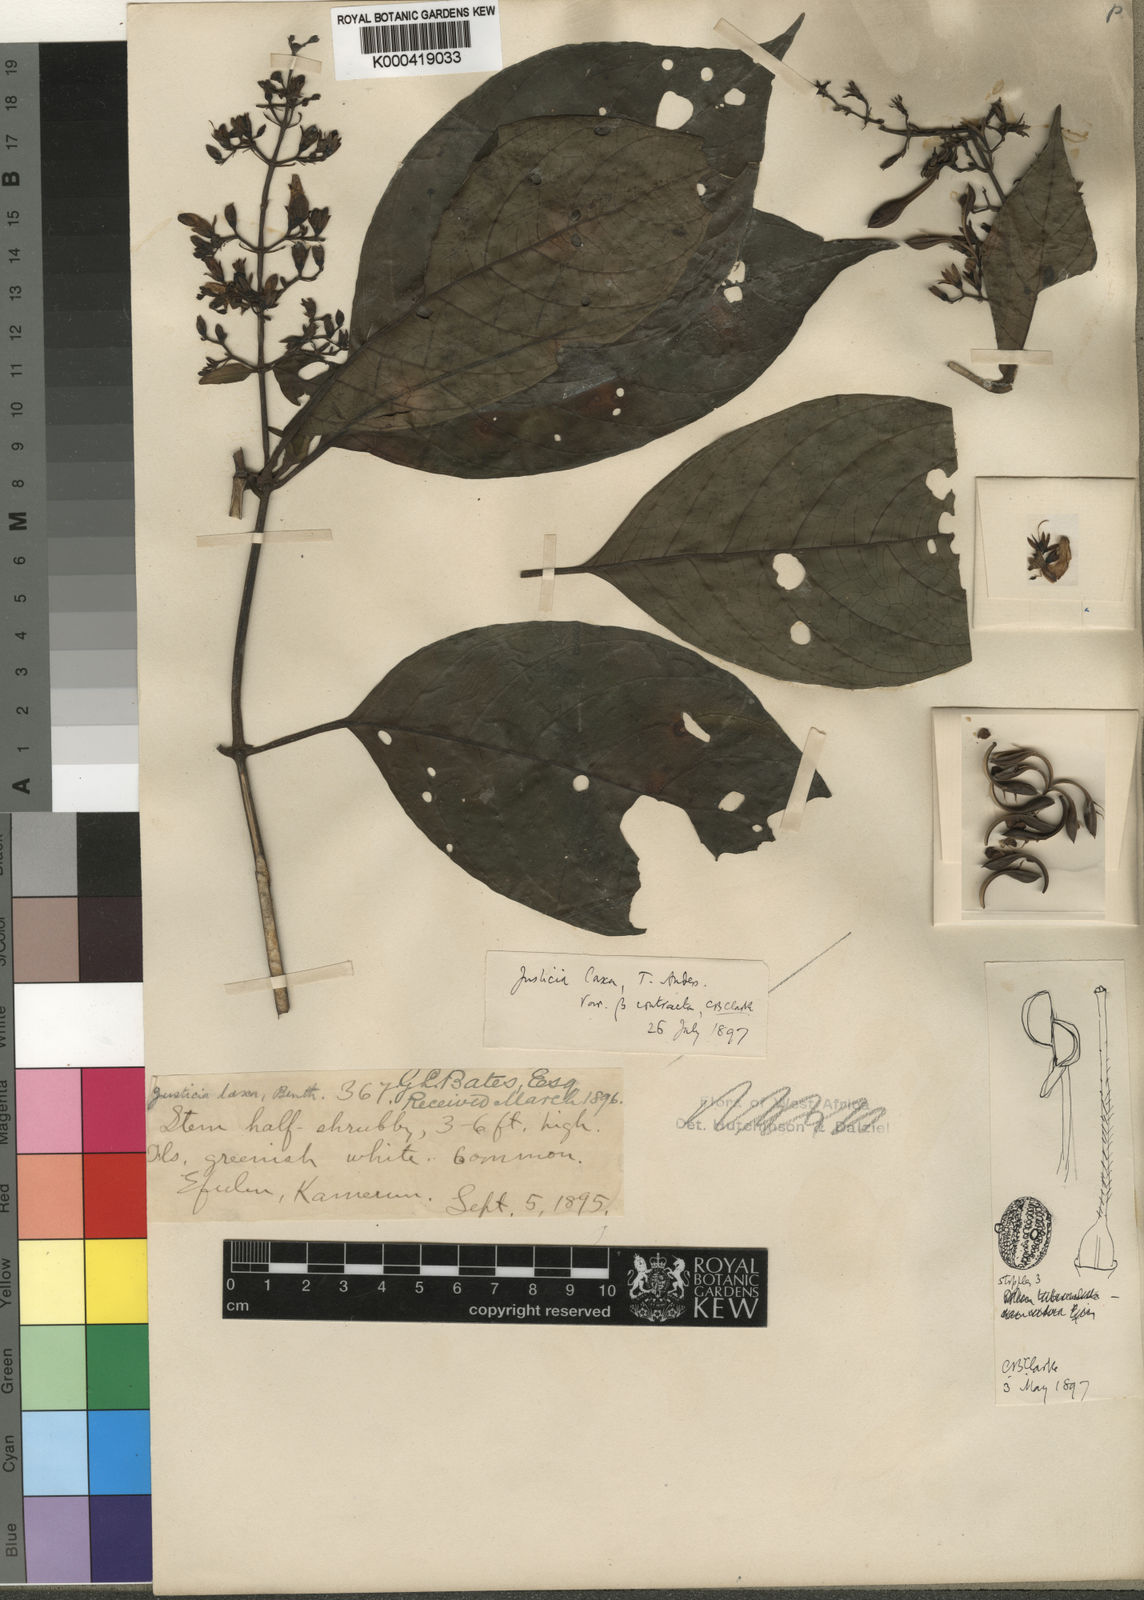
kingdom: Plantae
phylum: Tracheophyta
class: Magnoliopsida
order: Lamiales
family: Acanthaceae
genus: Justicia
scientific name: Justicia extensa
